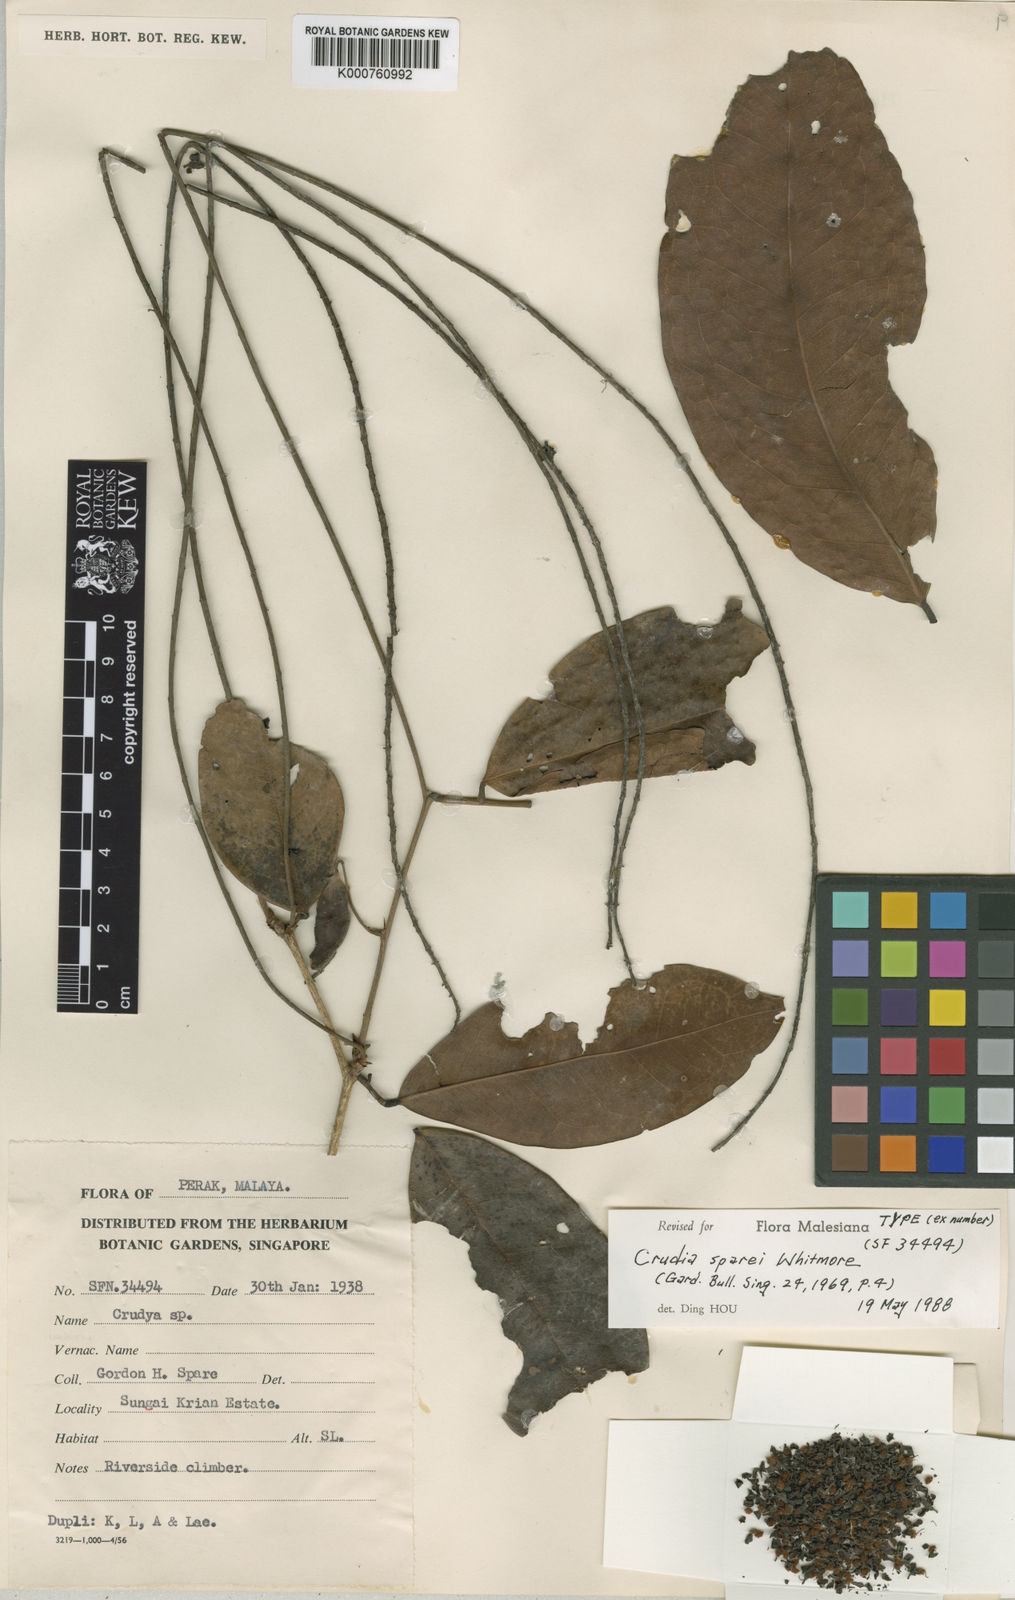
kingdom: Plantae
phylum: Tracheophyta
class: Magnoliopsida
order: Fabales
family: Fabaceae
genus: Crudia
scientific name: Crudia gracilis
